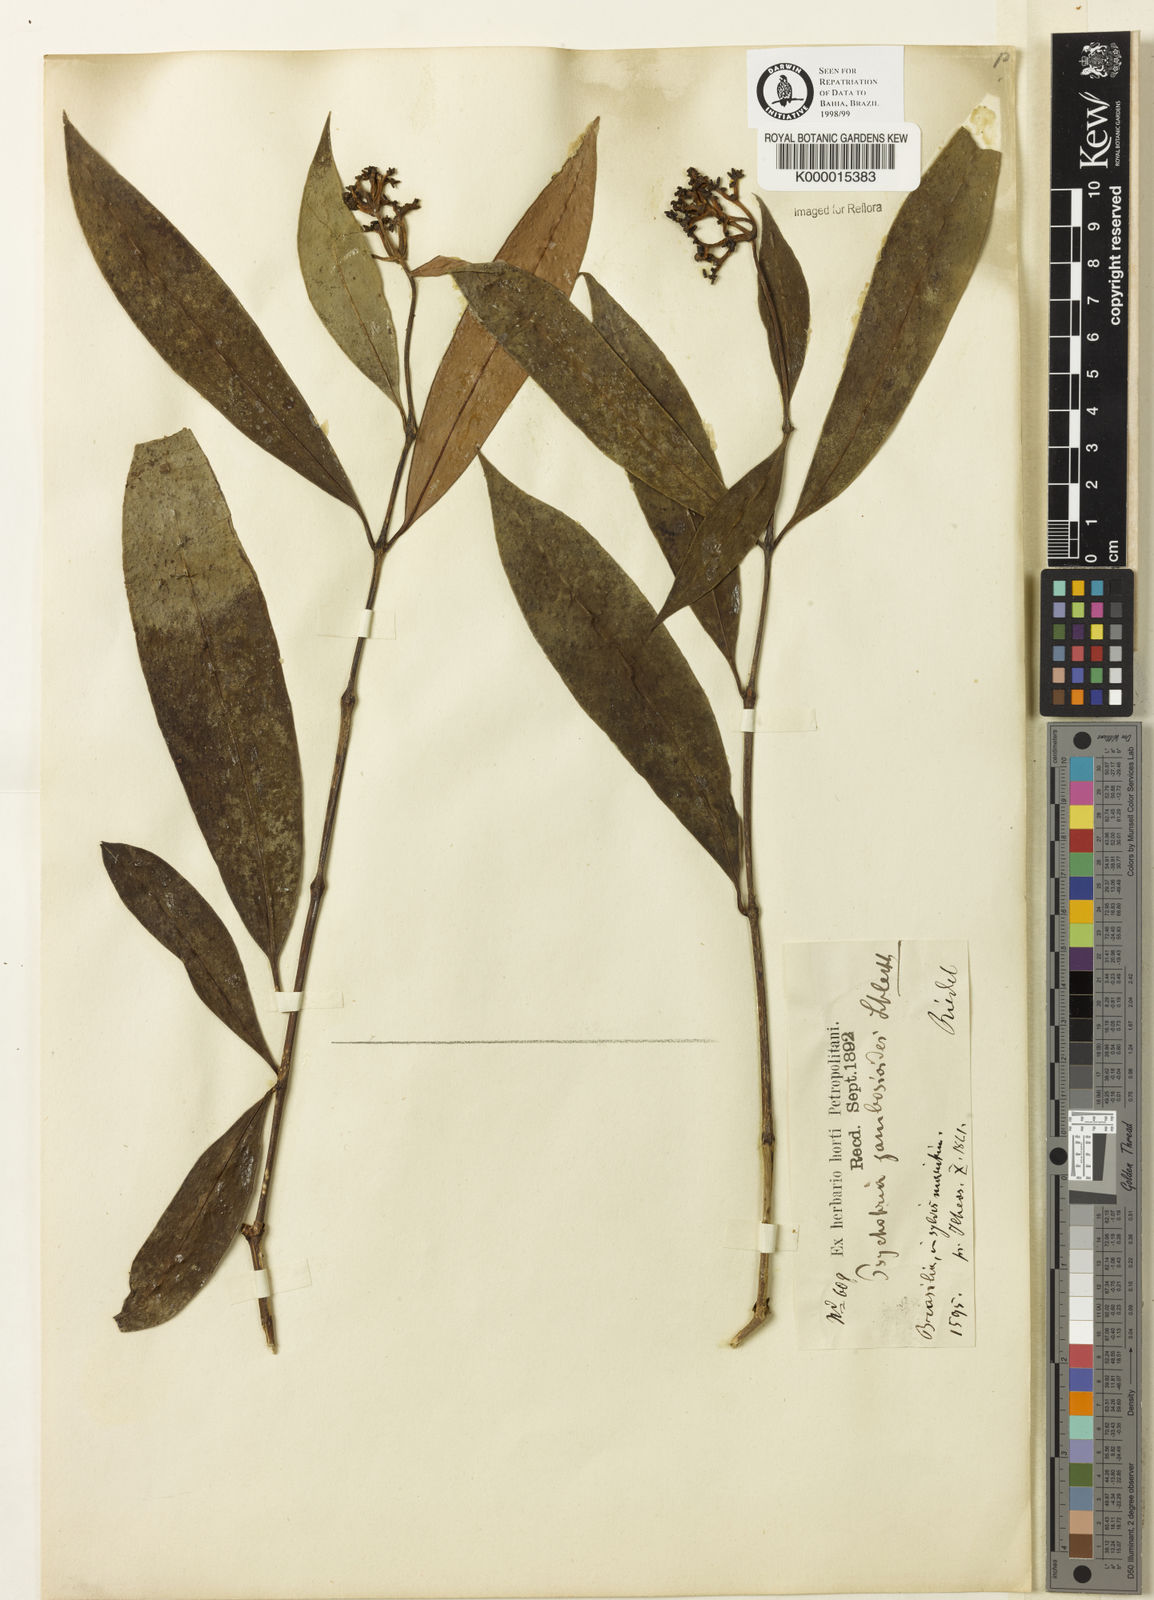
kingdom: Plantae
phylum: Tracheophyta
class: Magnoliopsida
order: Gentianales
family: Rubiaceae
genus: Palicourea
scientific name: Palicourea jambosioides
